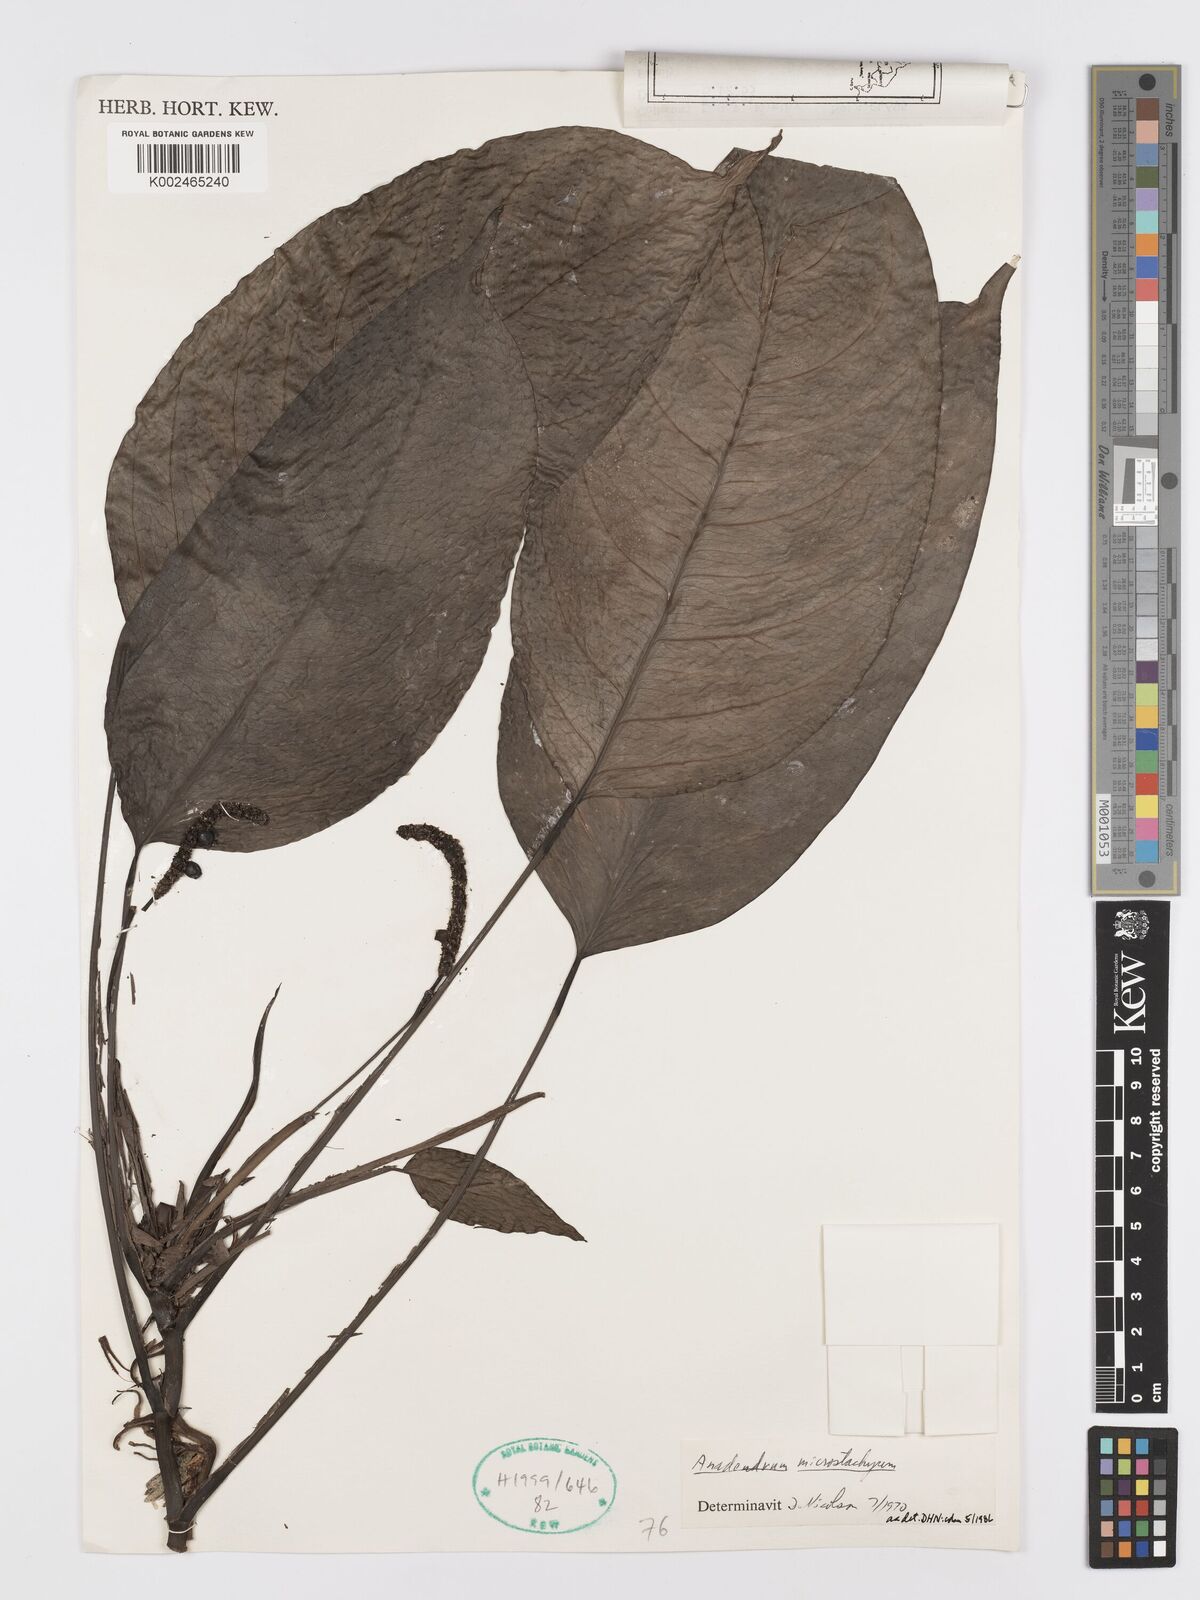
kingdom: Plantae
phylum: Tracheophyta
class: Liliopsida
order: Alismatales
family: Araceae
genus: Anadendrum
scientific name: Anadendrum microstachyum
